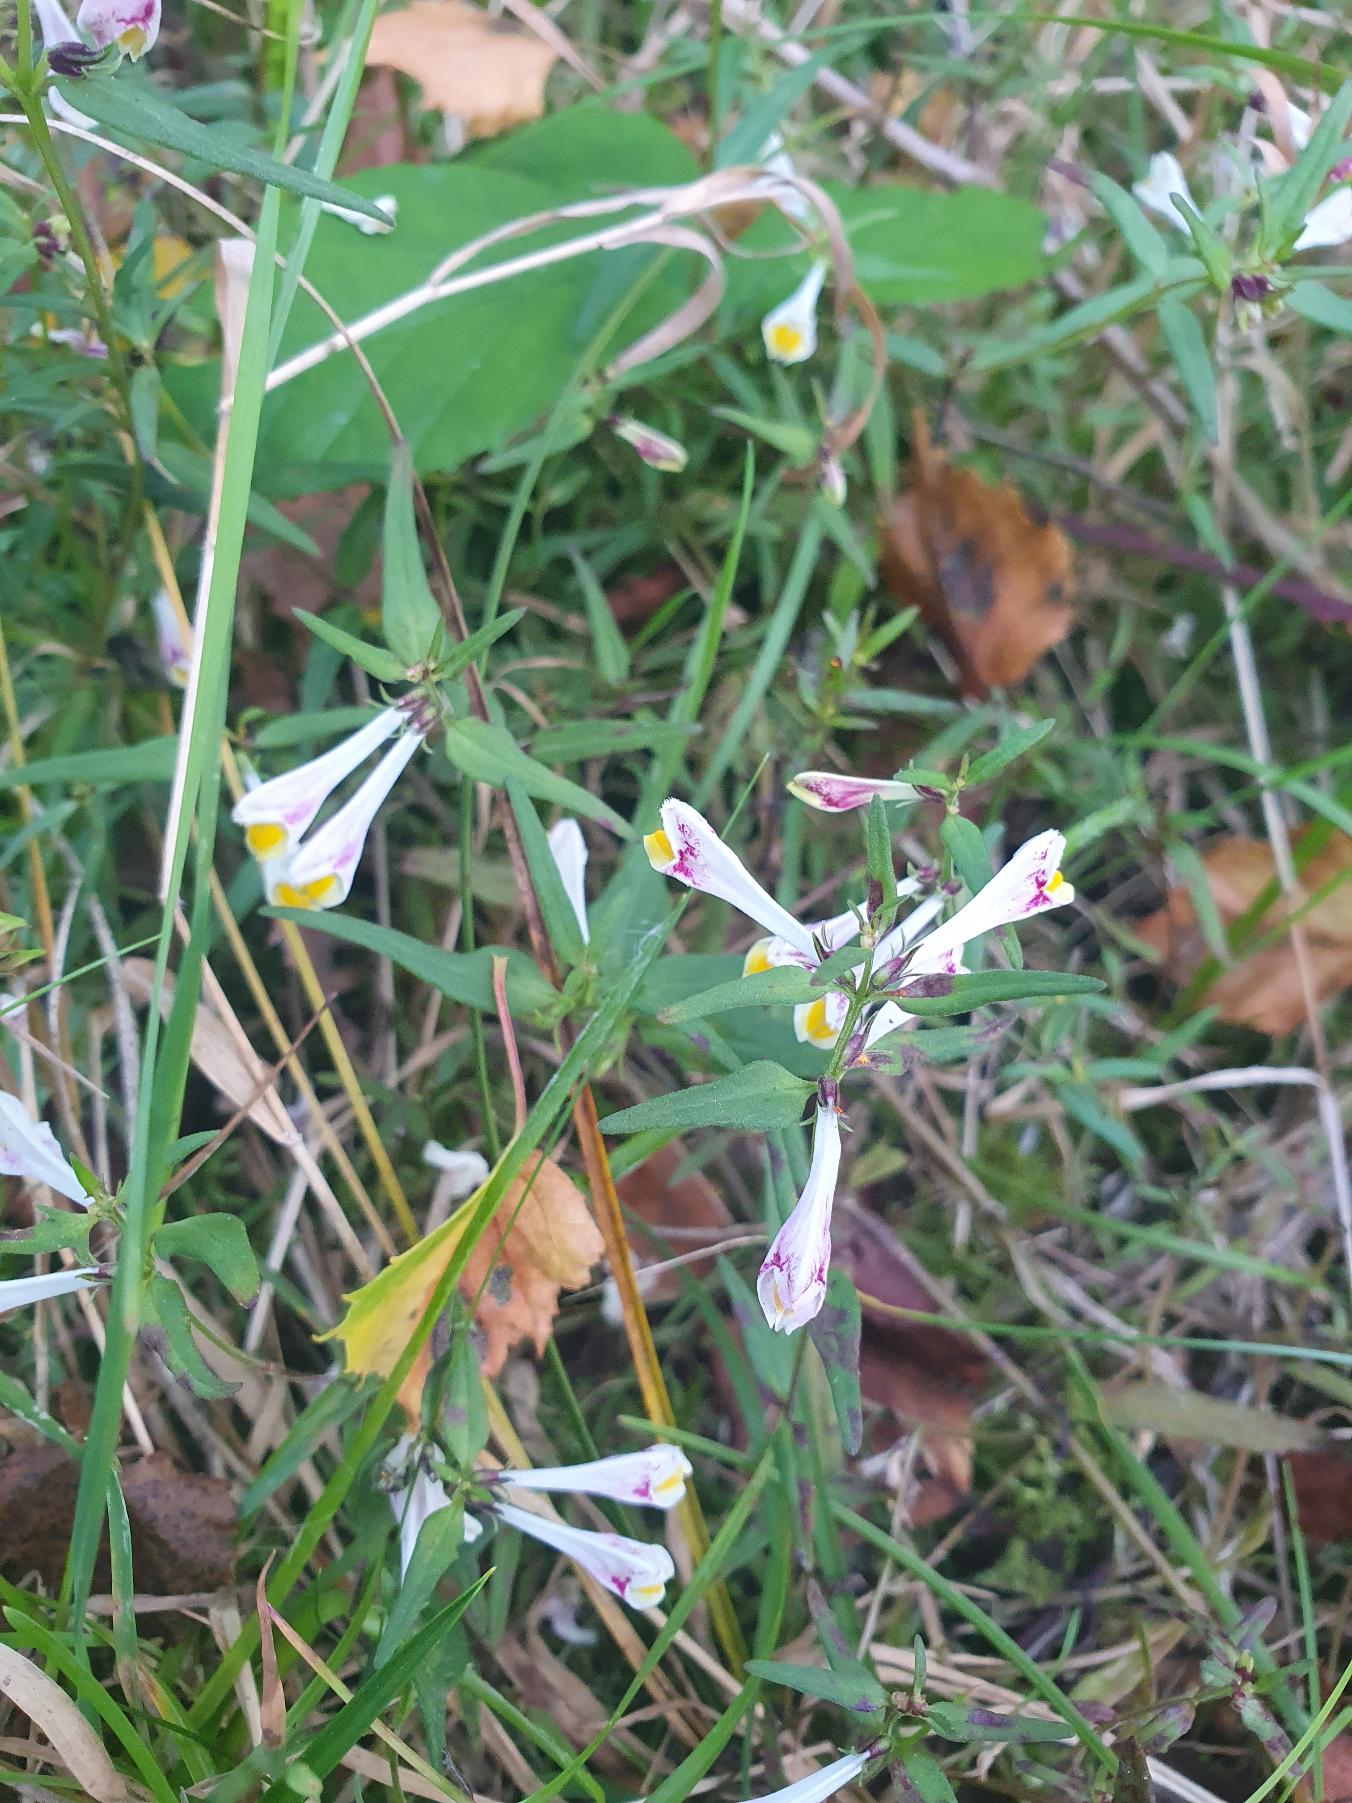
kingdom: Plantae
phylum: Tracheophyta
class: Magnoliopsida
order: Lamiales
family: Orobanchaceae
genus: Melampyrum
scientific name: Melampyrum pratense
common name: Almindelig kohvede
